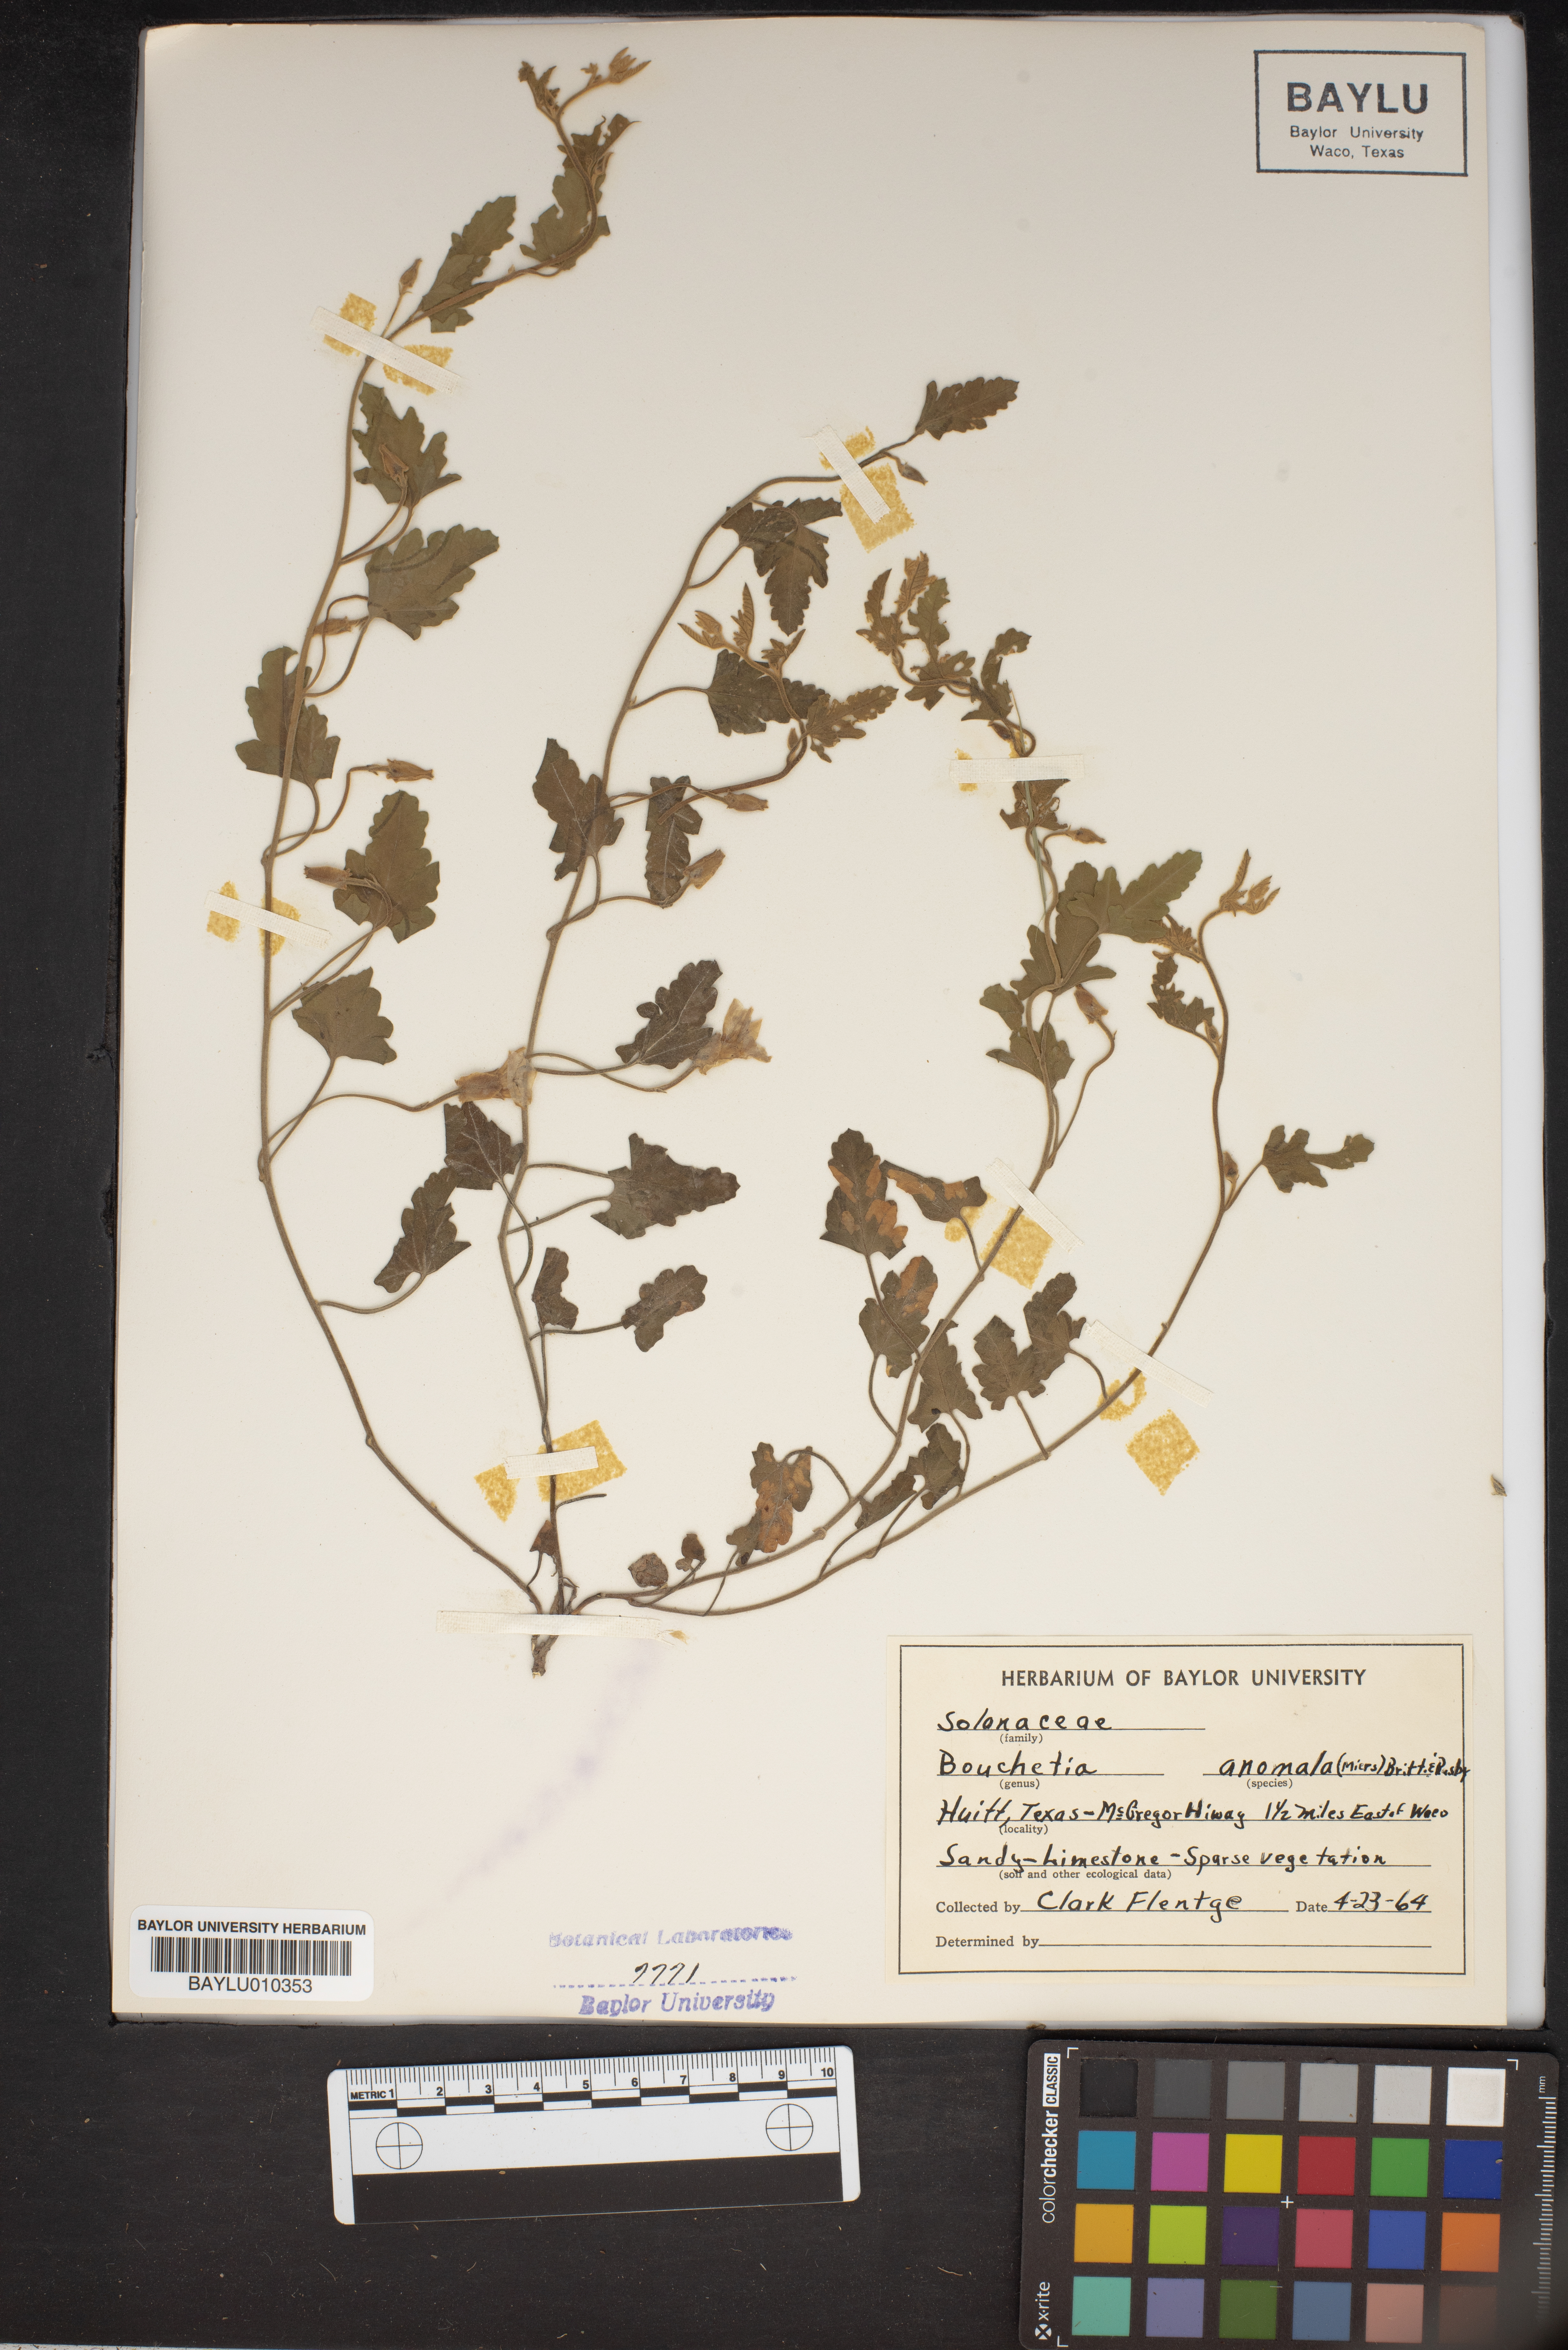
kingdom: Plantae
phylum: Tracheophyta
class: Magnoliopsida
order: Solanales
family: Solanaceae
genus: Salpiglossis
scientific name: Salpiglossis anomala
